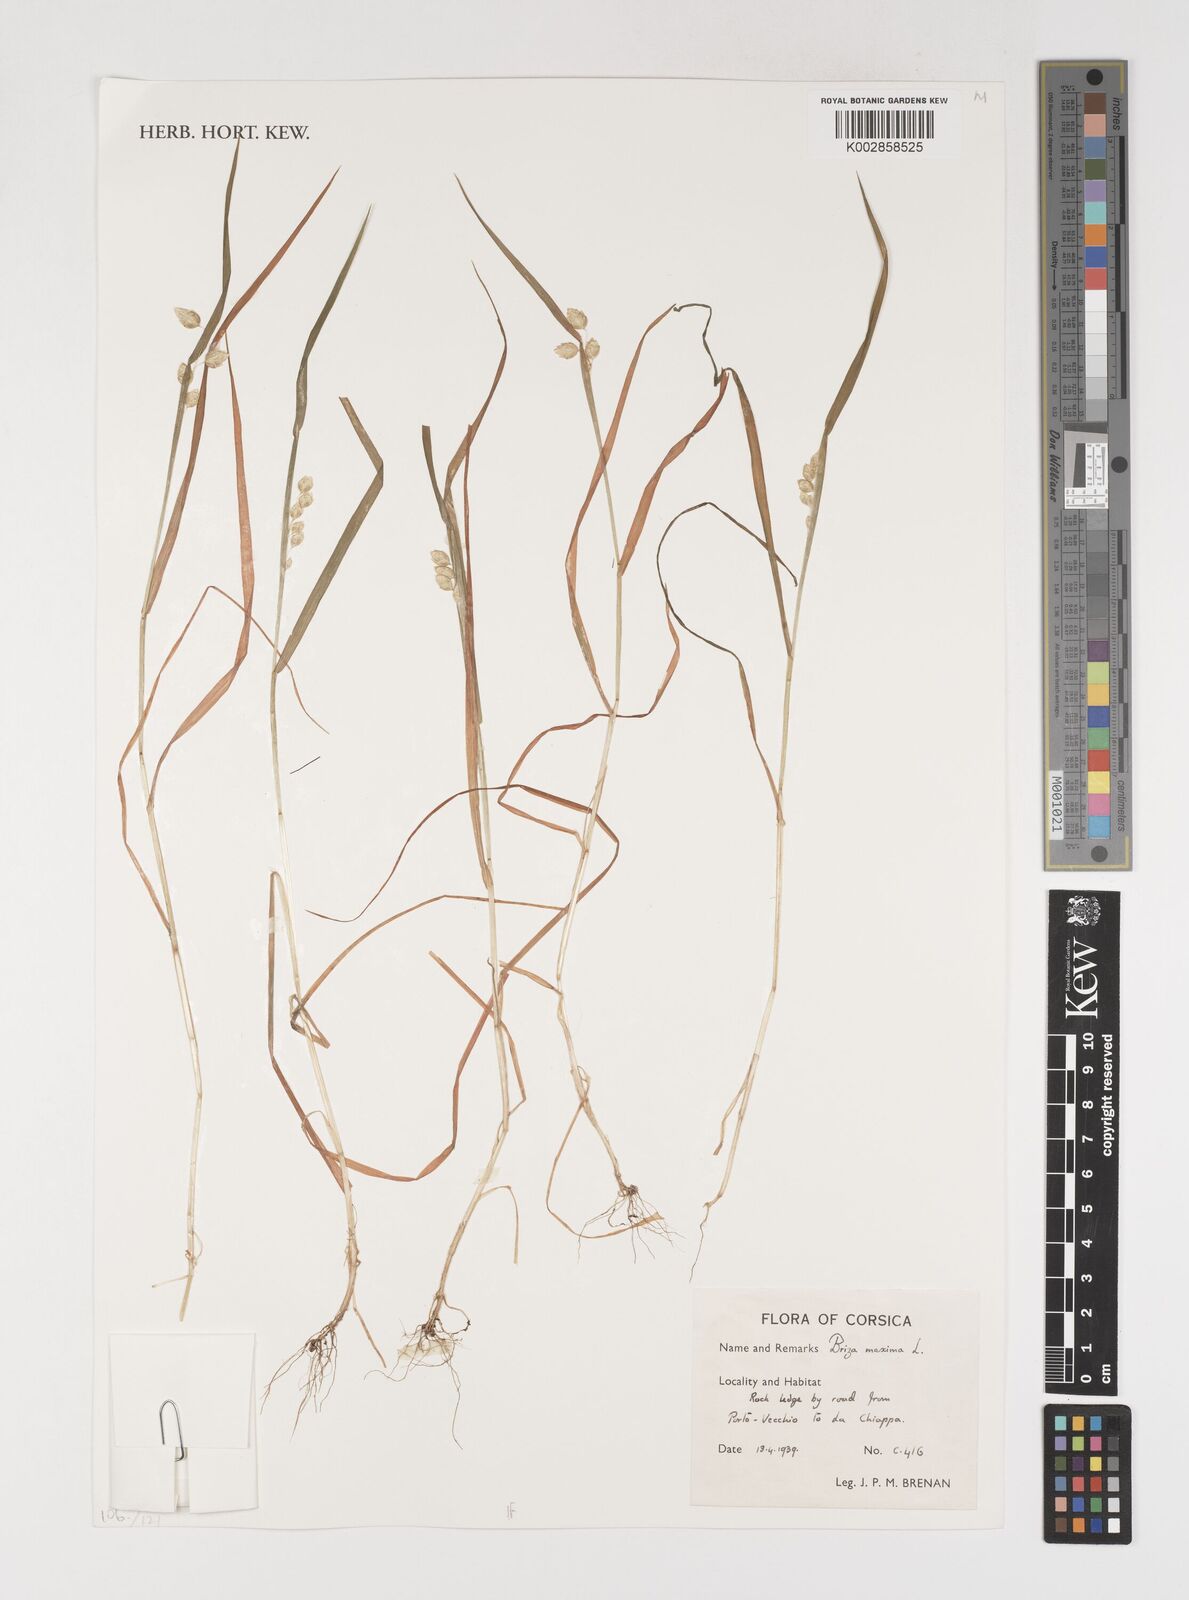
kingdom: Plantae
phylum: Tracheophyta
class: Liliopsida
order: Poales
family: Poaceae
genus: Briza
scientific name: Briza maxima
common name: Big quakinggrass
